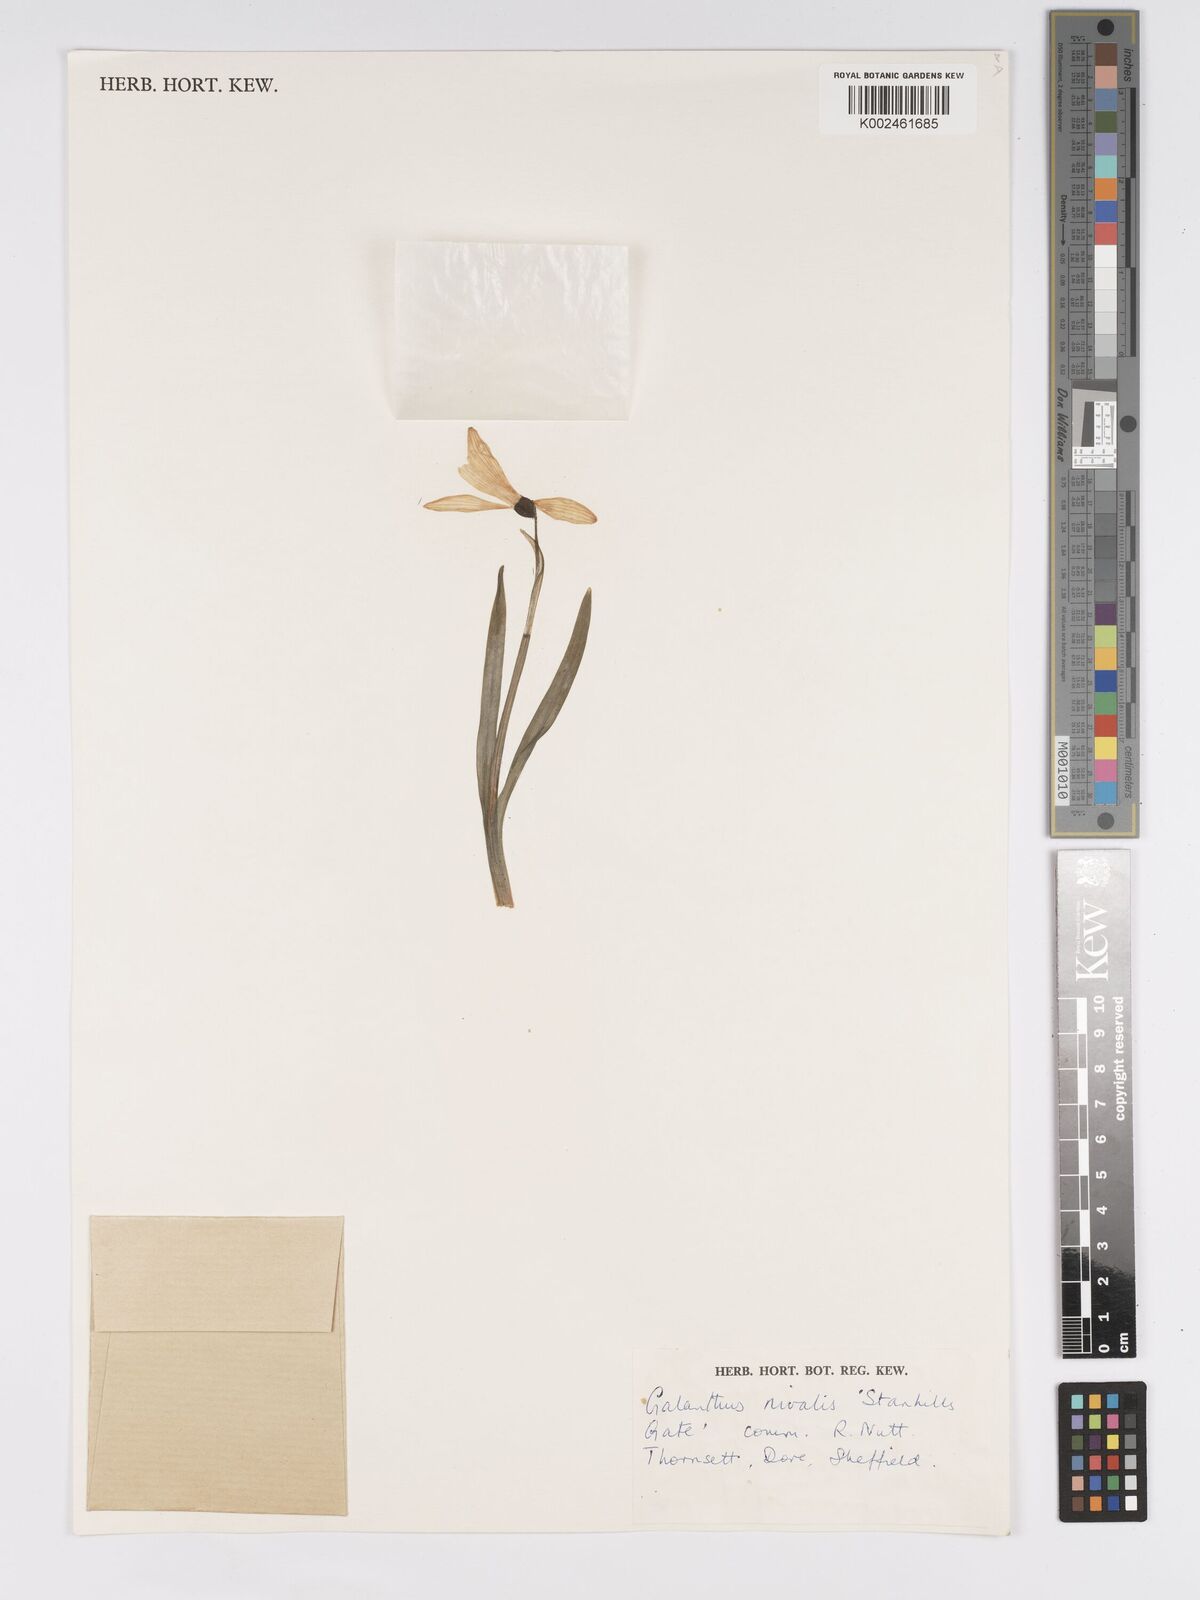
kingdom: Plantae
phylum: Tracheophyta
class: Liliopsida
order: Asparagales
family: Amaryllidaceae
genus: Galanthus
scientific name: Galanthus nivalis
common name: Snowdrop
